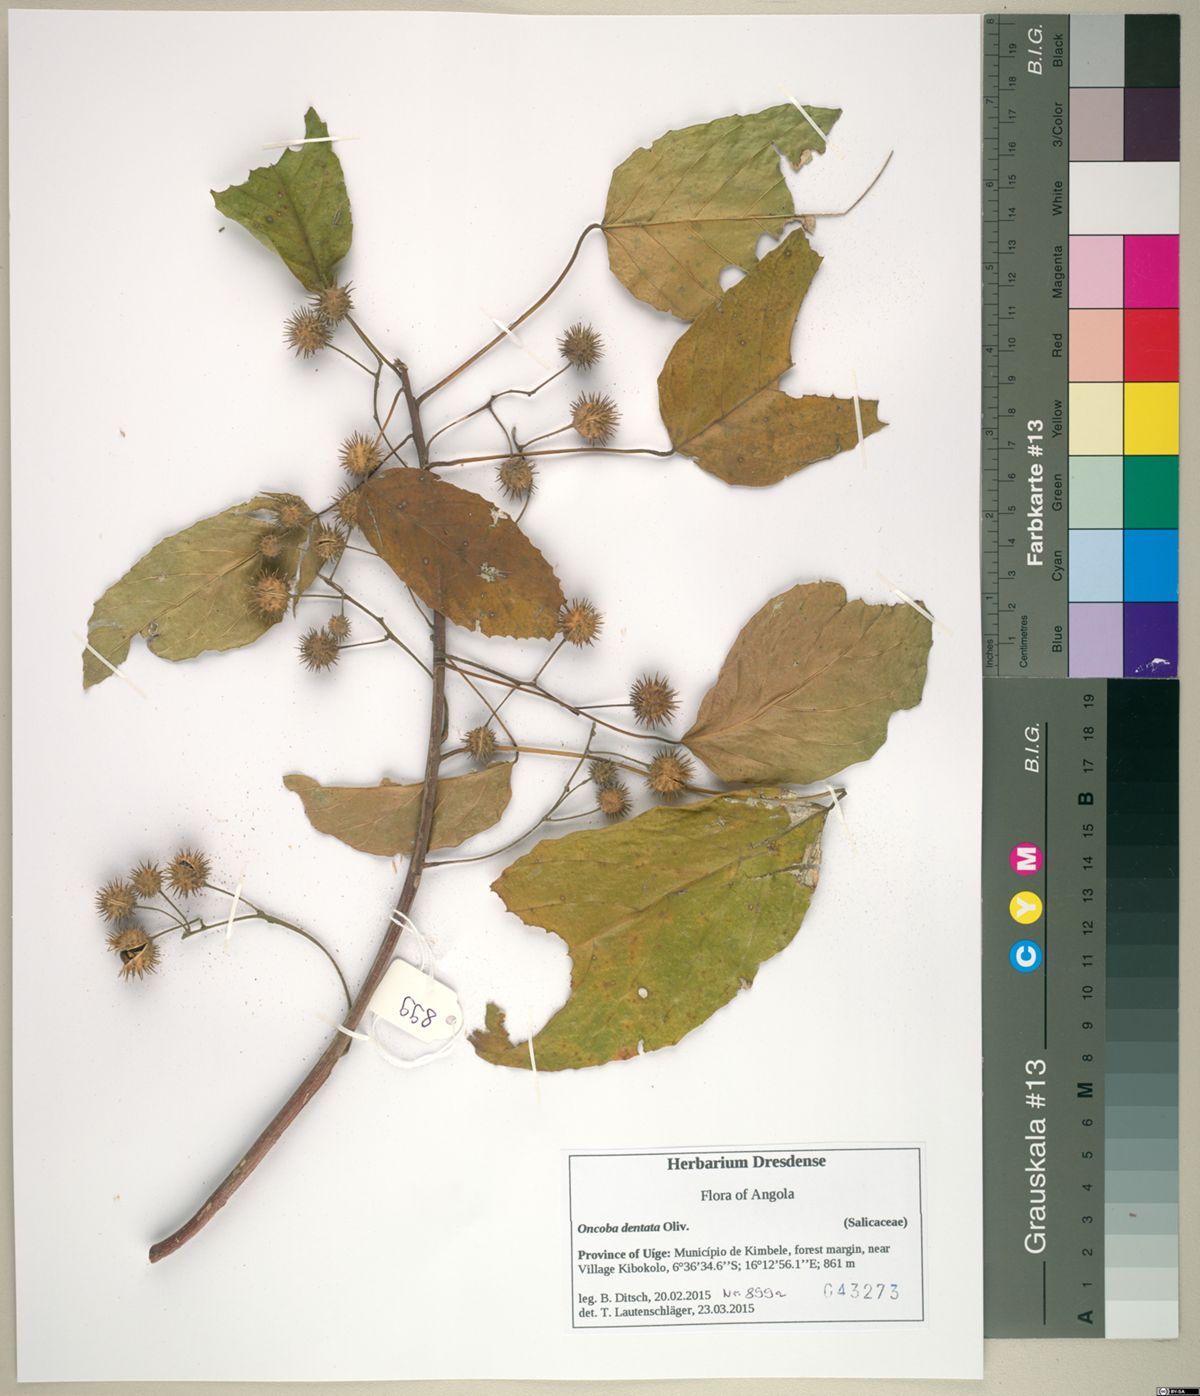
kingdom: Plantae
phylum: Tracheophyta
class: Magnoliopsida
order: Malpighiales
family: Achariaceae
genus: Lindackeria
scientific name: Lindackeria dentata
